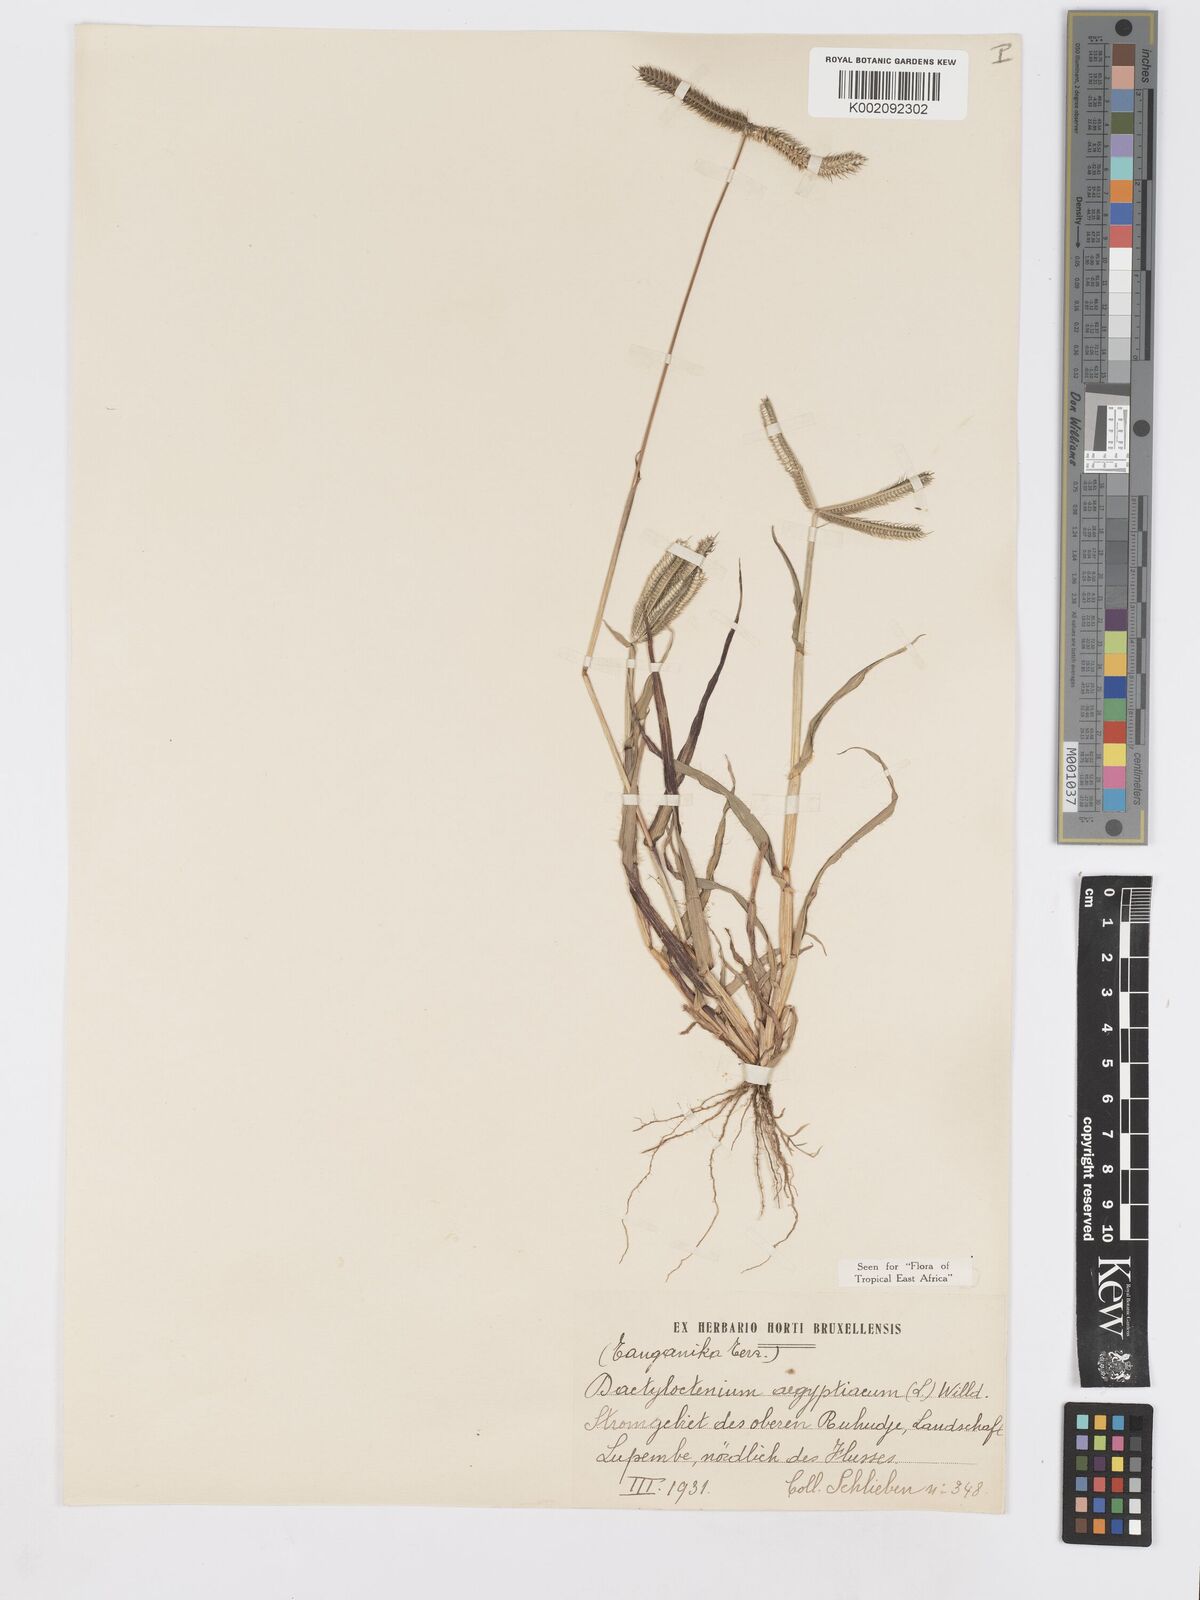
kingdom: Plantae
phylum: Tracheophyta
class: Liliopsida
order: Poales
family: Poaceae
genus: Dactyloctenium
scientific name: Dactyloctenium aegyptium
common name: Egyptian grass
